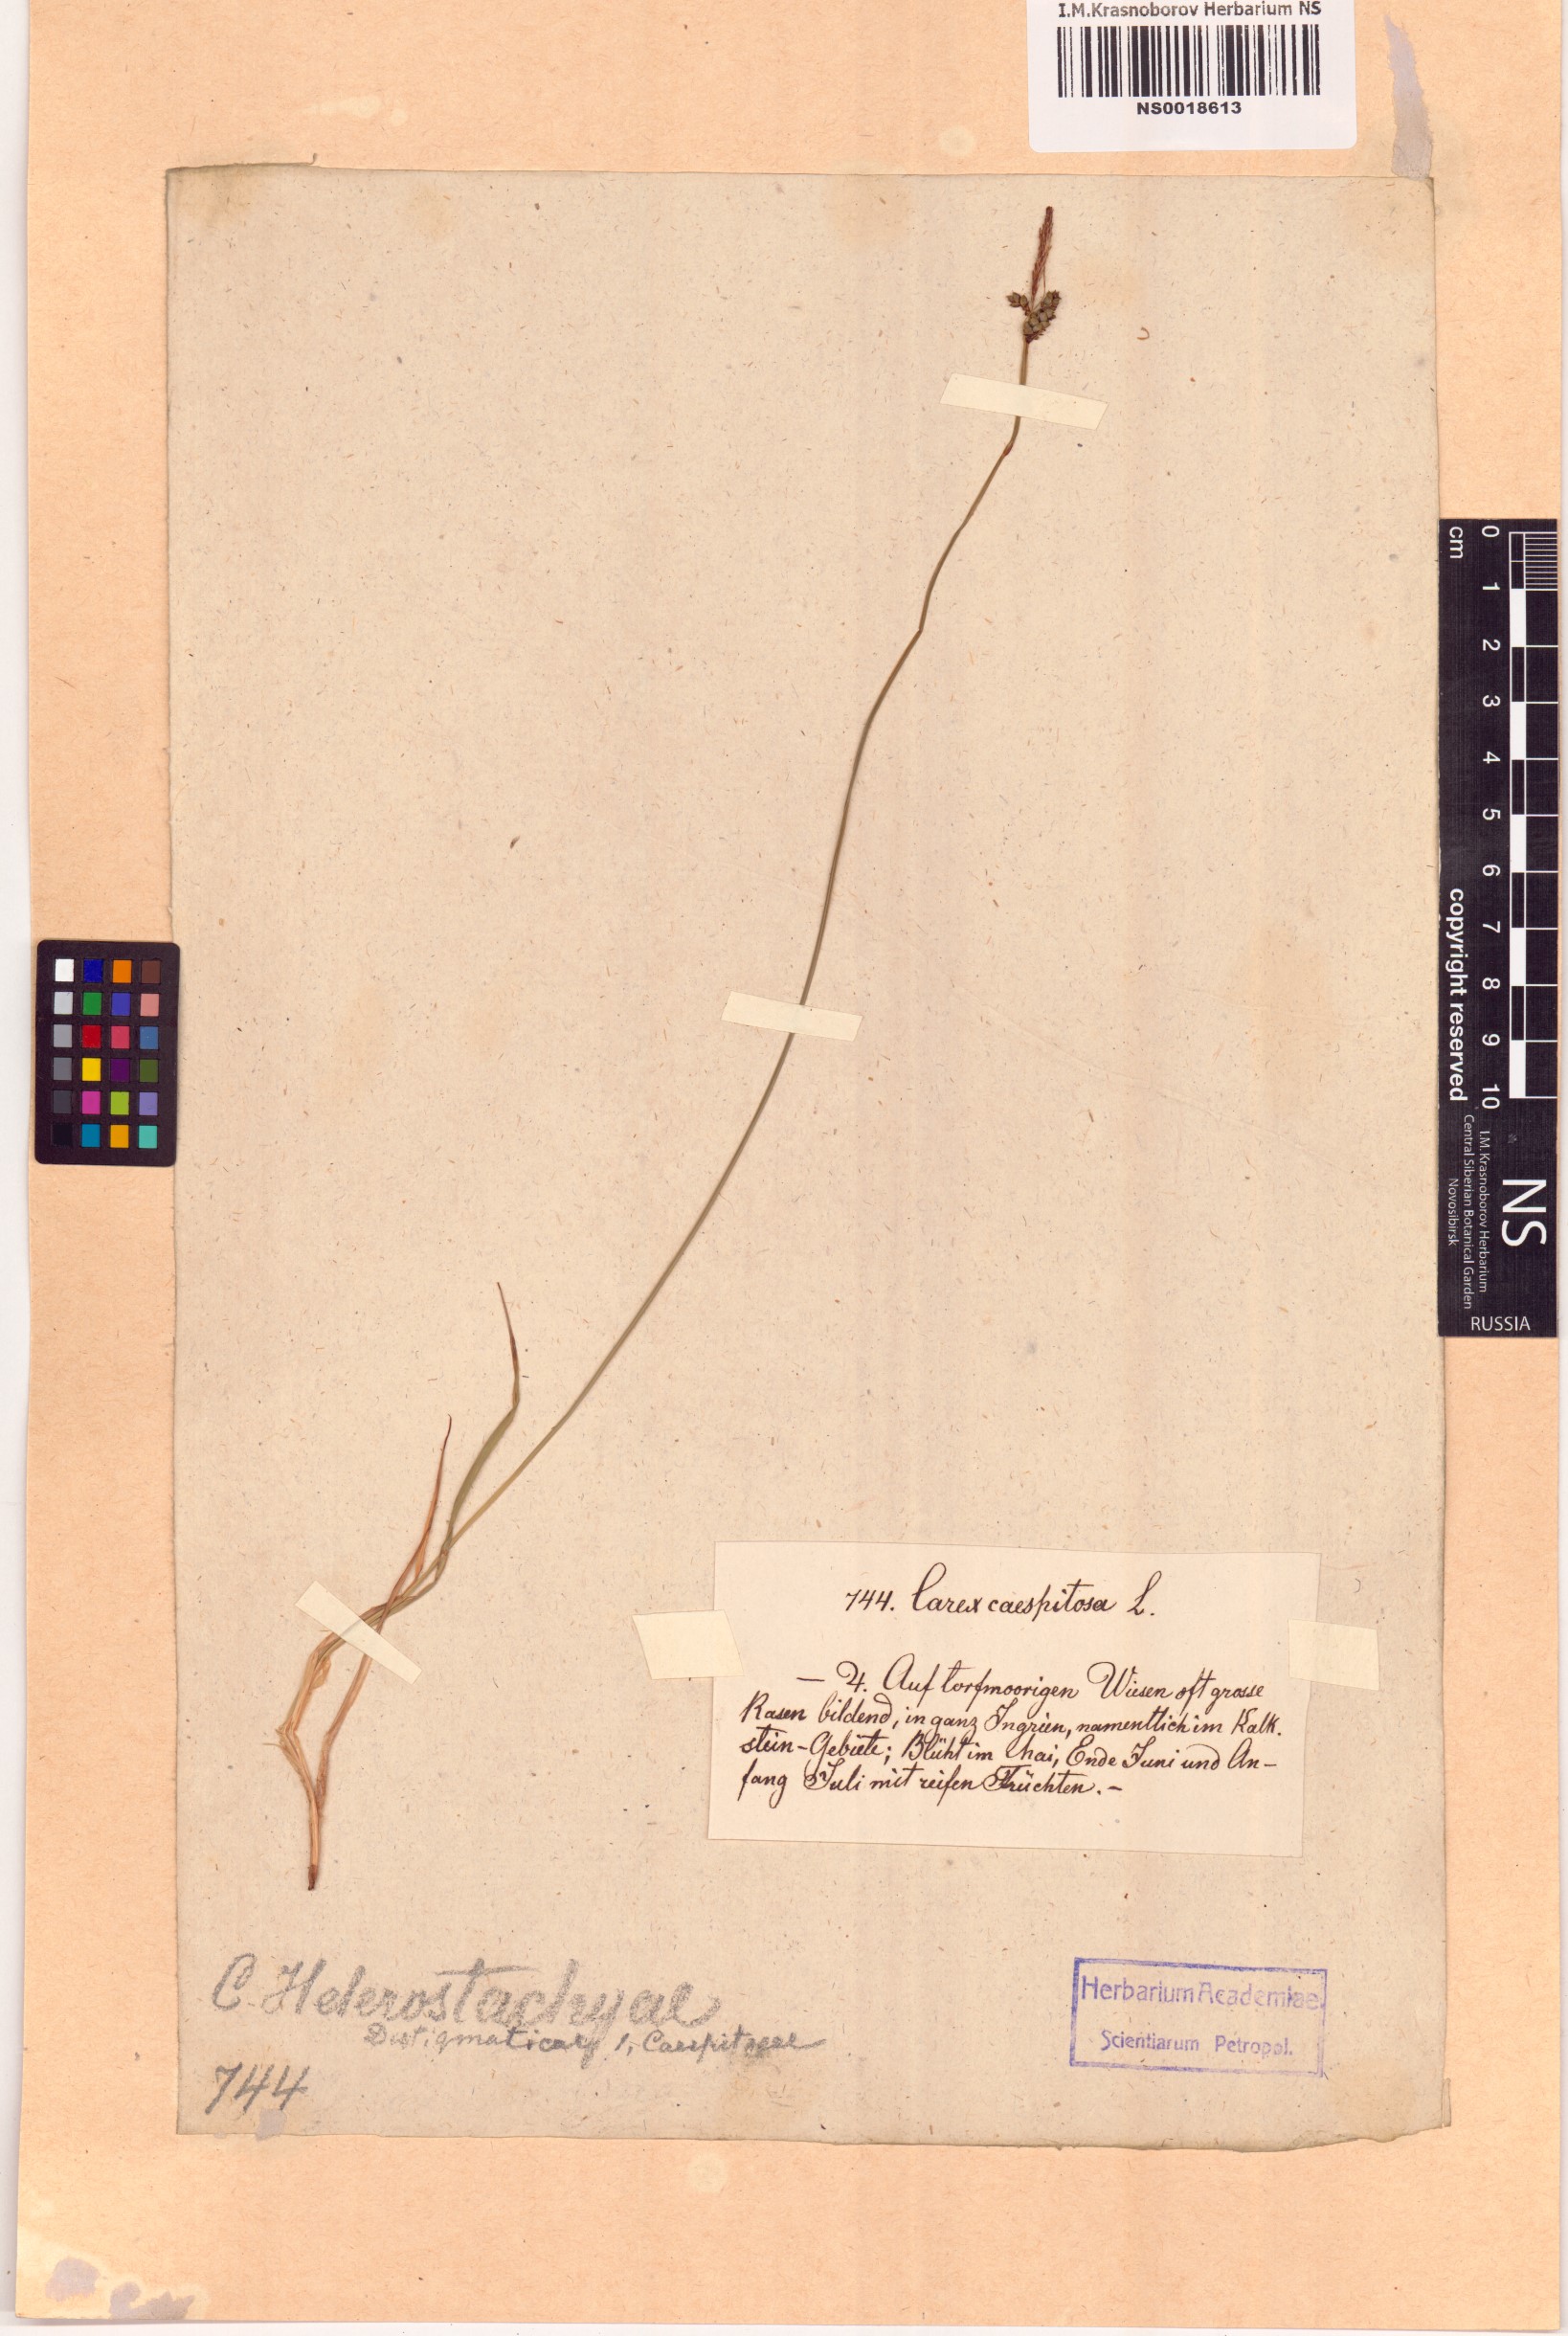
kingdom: Plantae
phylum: Tracheophyta
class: Liliopsida
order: Poales
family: Cyperaceae
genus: Carex
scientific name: Carex cespitosa
